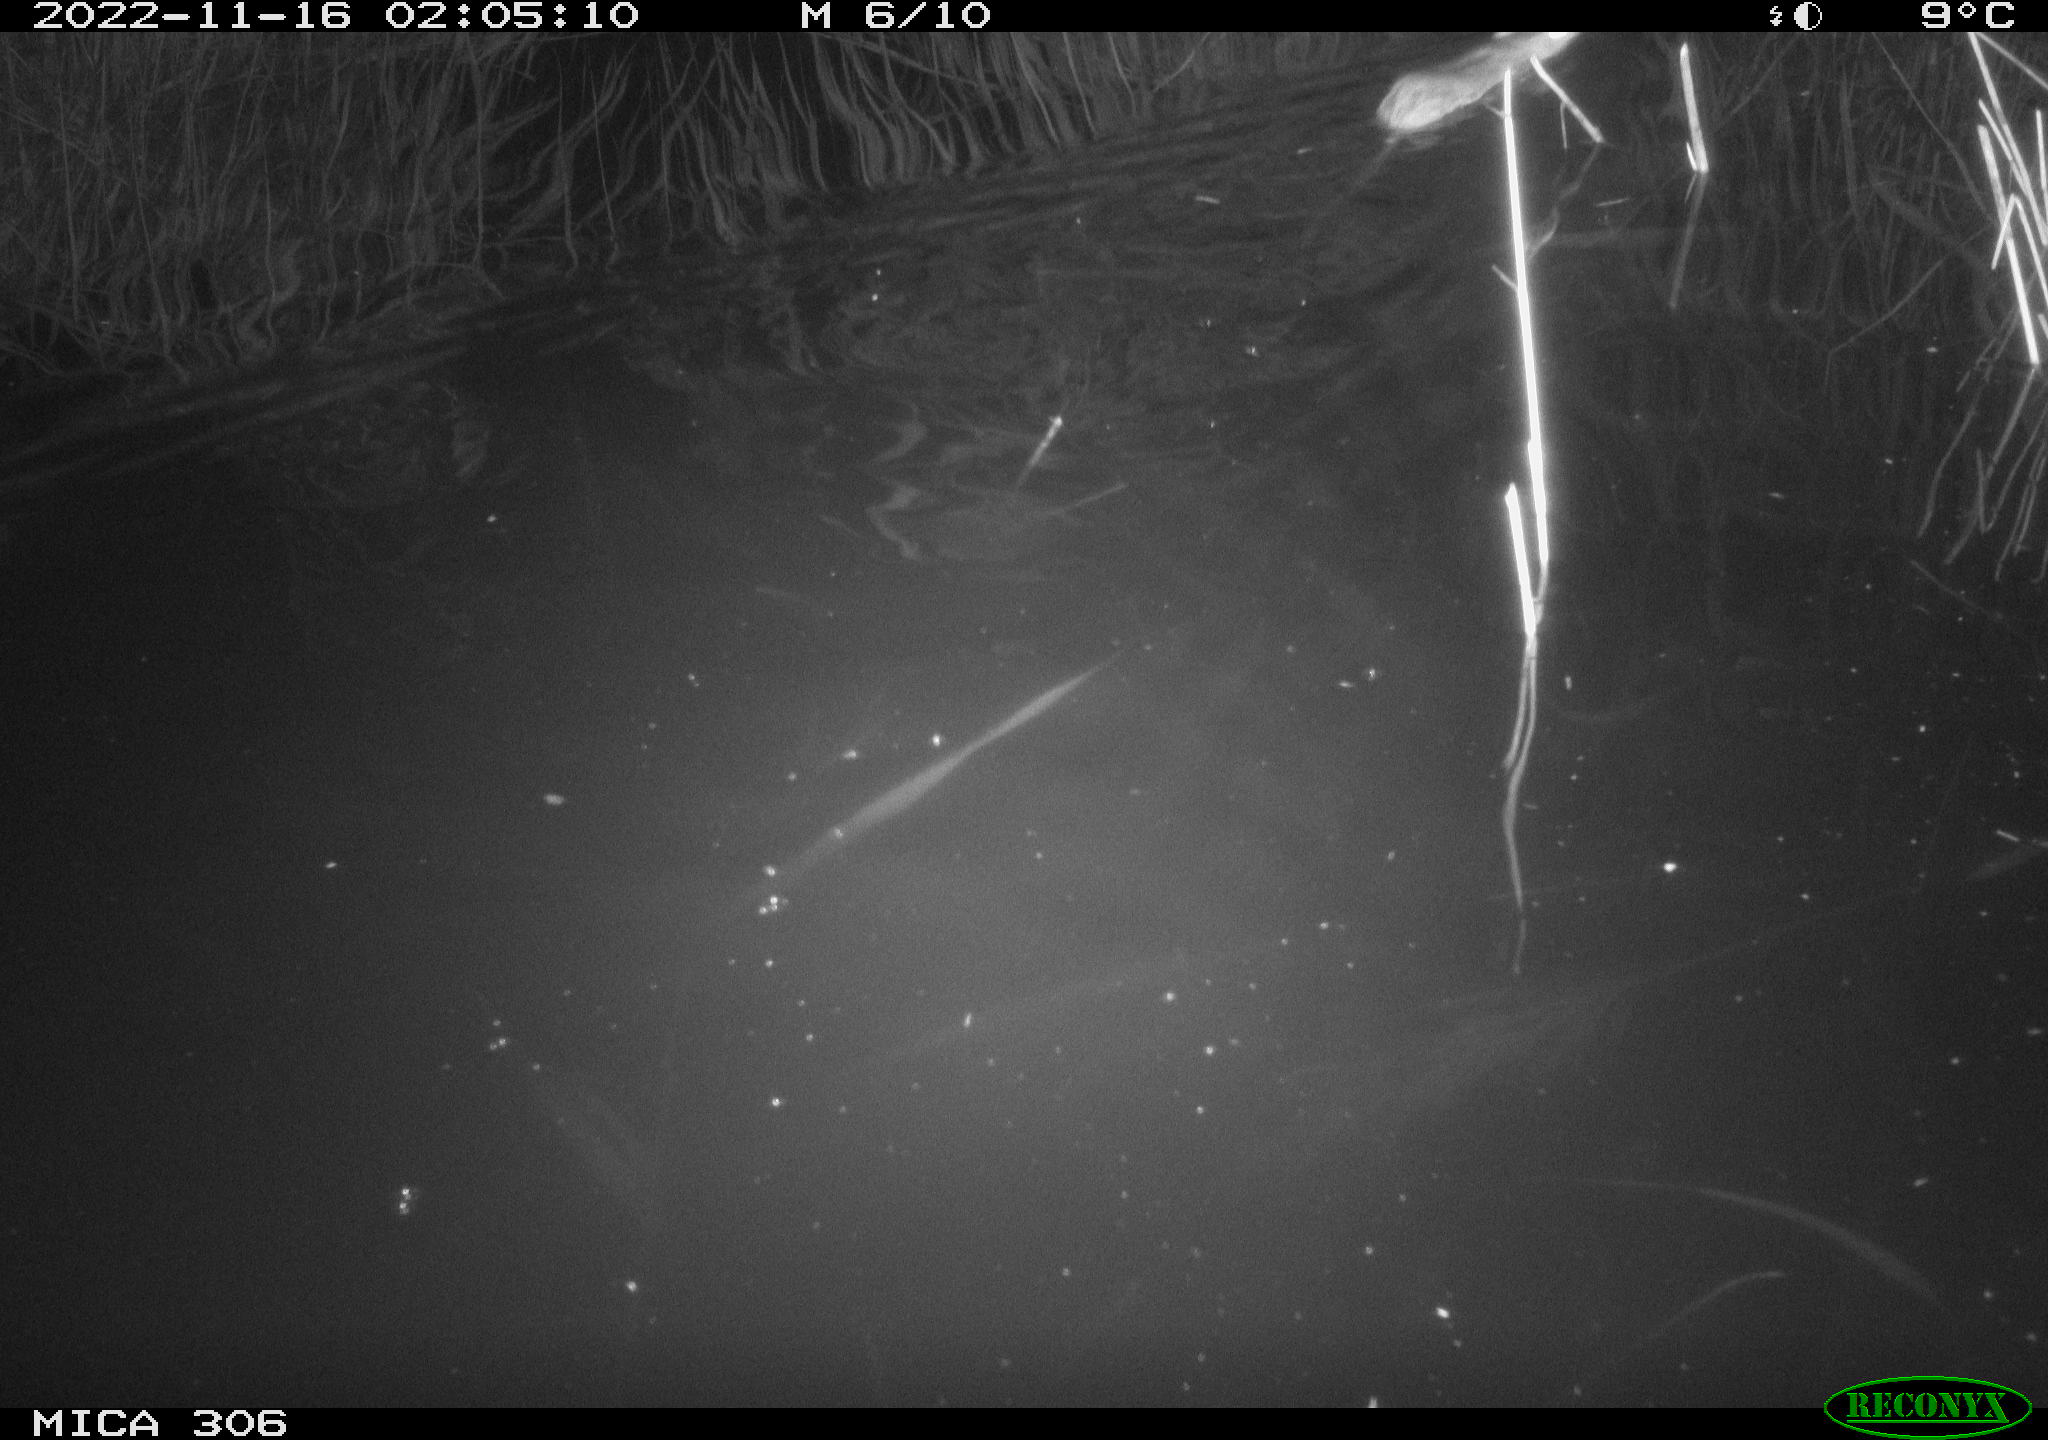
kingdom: Animalia
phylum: Chordata
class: Mammalia
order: Rodentia
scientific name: Rodentia
